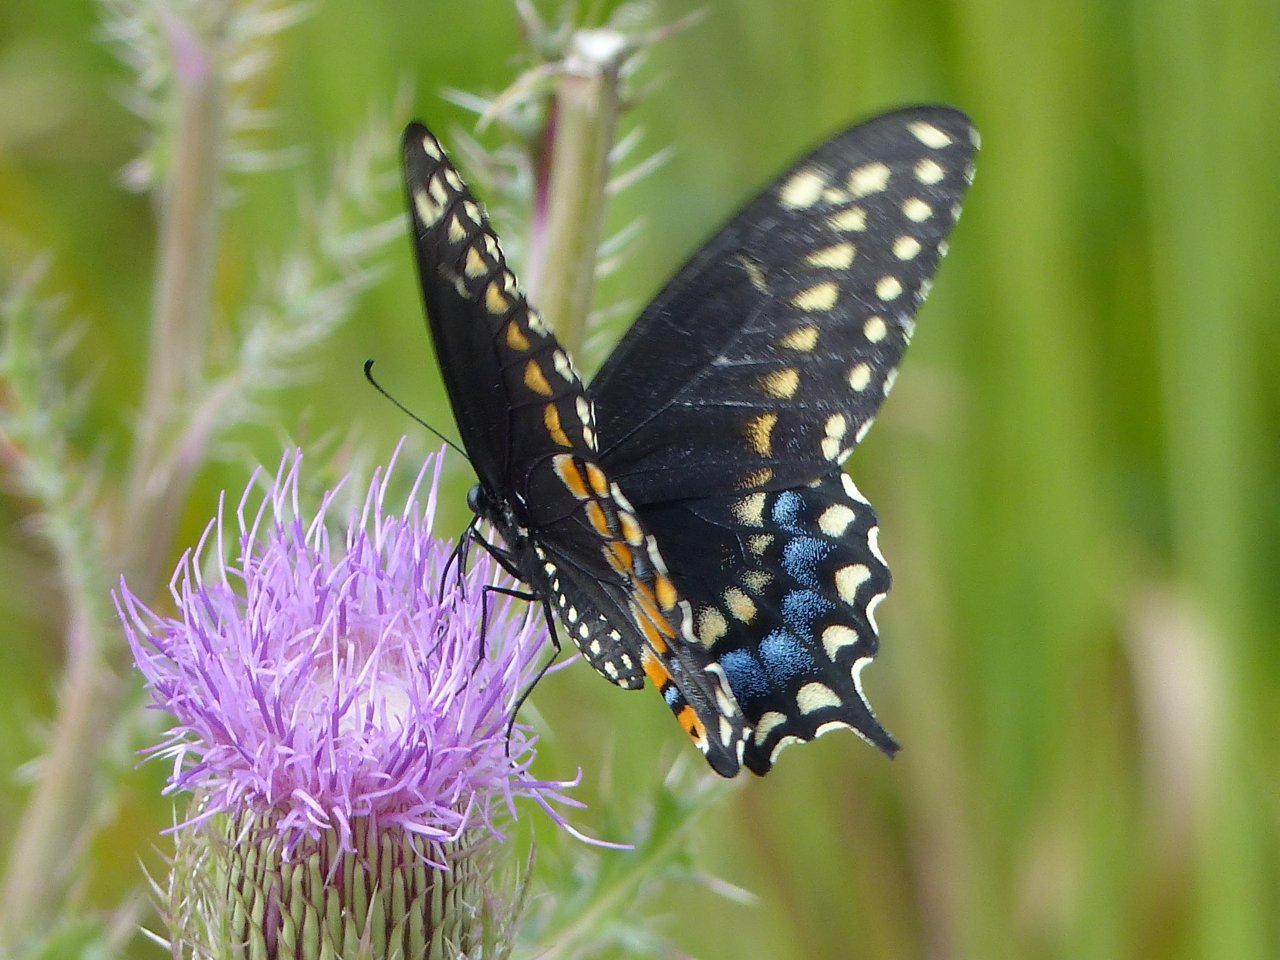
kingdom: Animalia
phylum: Arthropoda
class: Insecta
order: Lepidoptera
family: Papilionidae
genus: Papilio
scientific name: Papilio polyxenes
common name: Black Swallowtail
